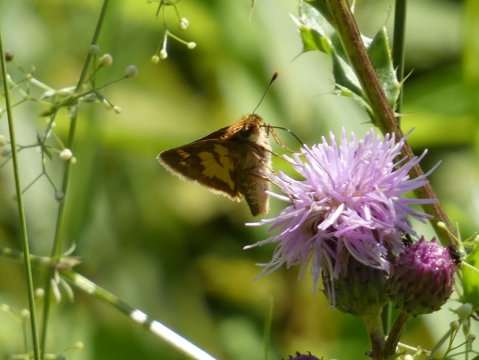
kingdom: Animalia
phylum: Arthropoda
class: Insecta
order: Lepidoptera
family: Hesperiidae
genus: Polites
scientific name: Polites coras
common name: Peck's Skipper
